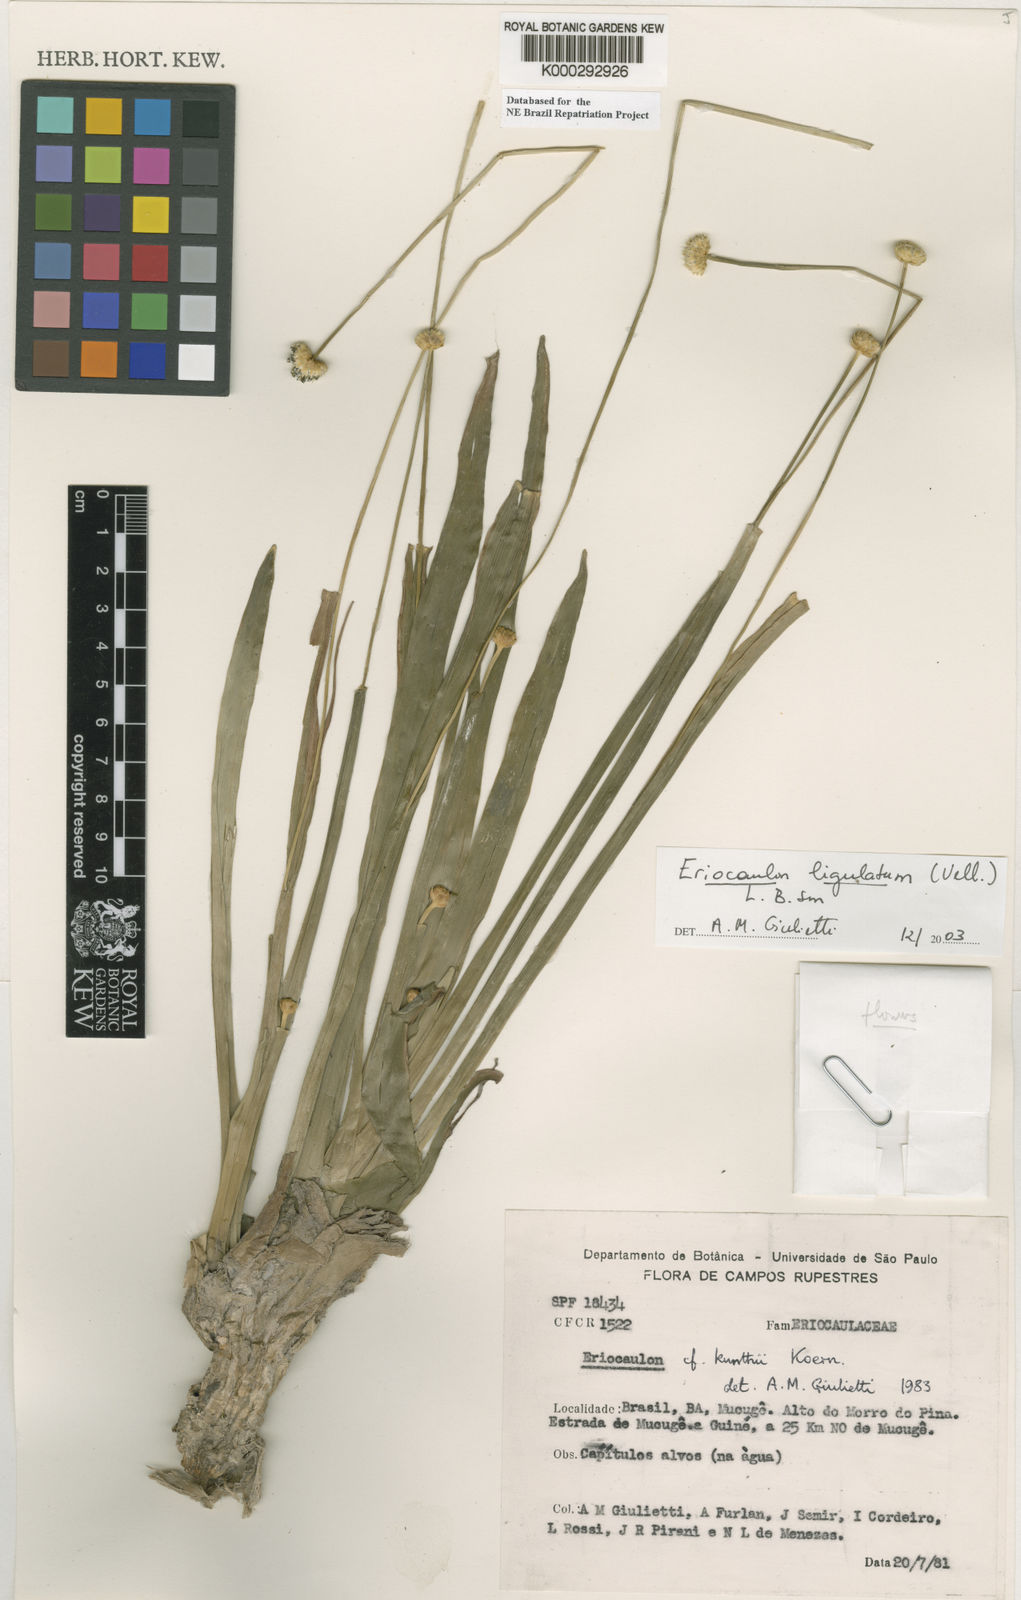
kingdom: Plantae
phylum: Tracheophyta
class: Liliopsida
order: Poales
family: Eriocaulaceae
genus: Eriocaulon
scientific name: Eriocaulon
